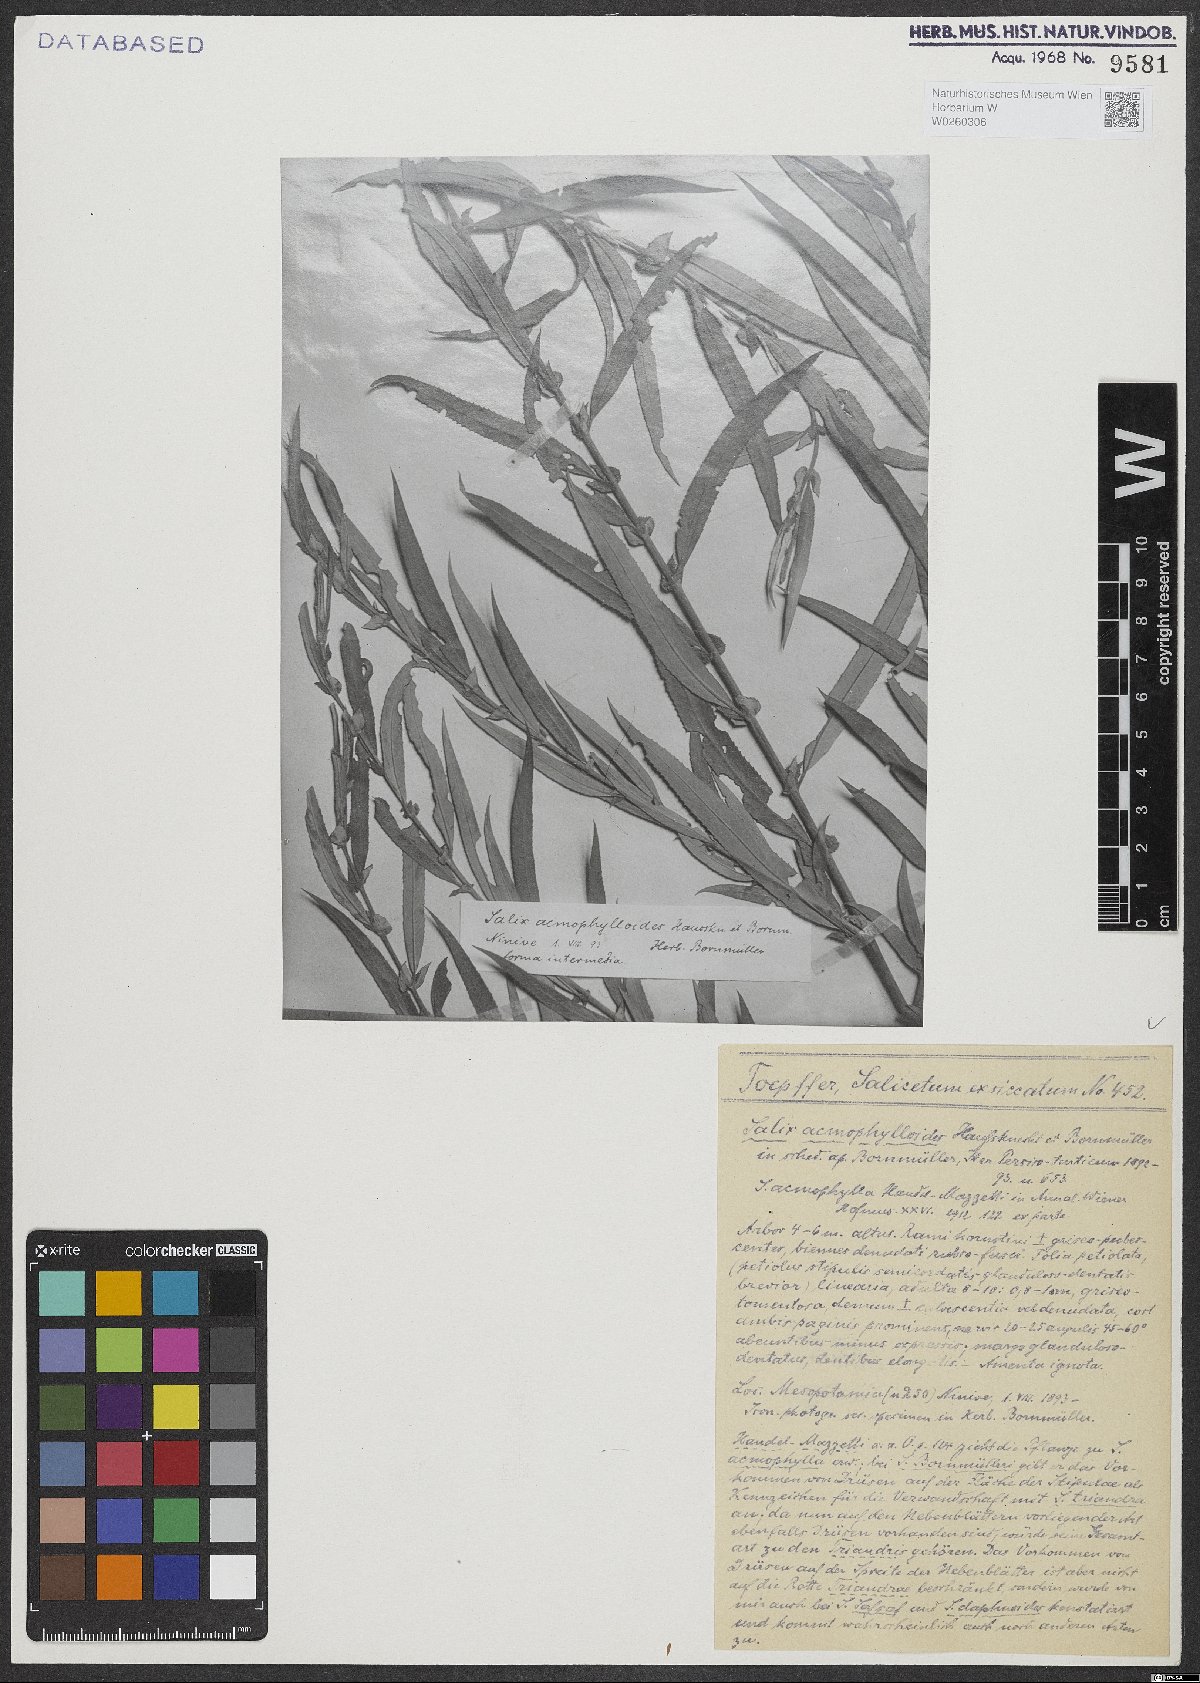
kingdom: Plantae
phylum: Tracheophyta
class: Magnoliopsida
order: Malpighiales
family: Salicaceae
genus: Salix
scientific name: Salix
